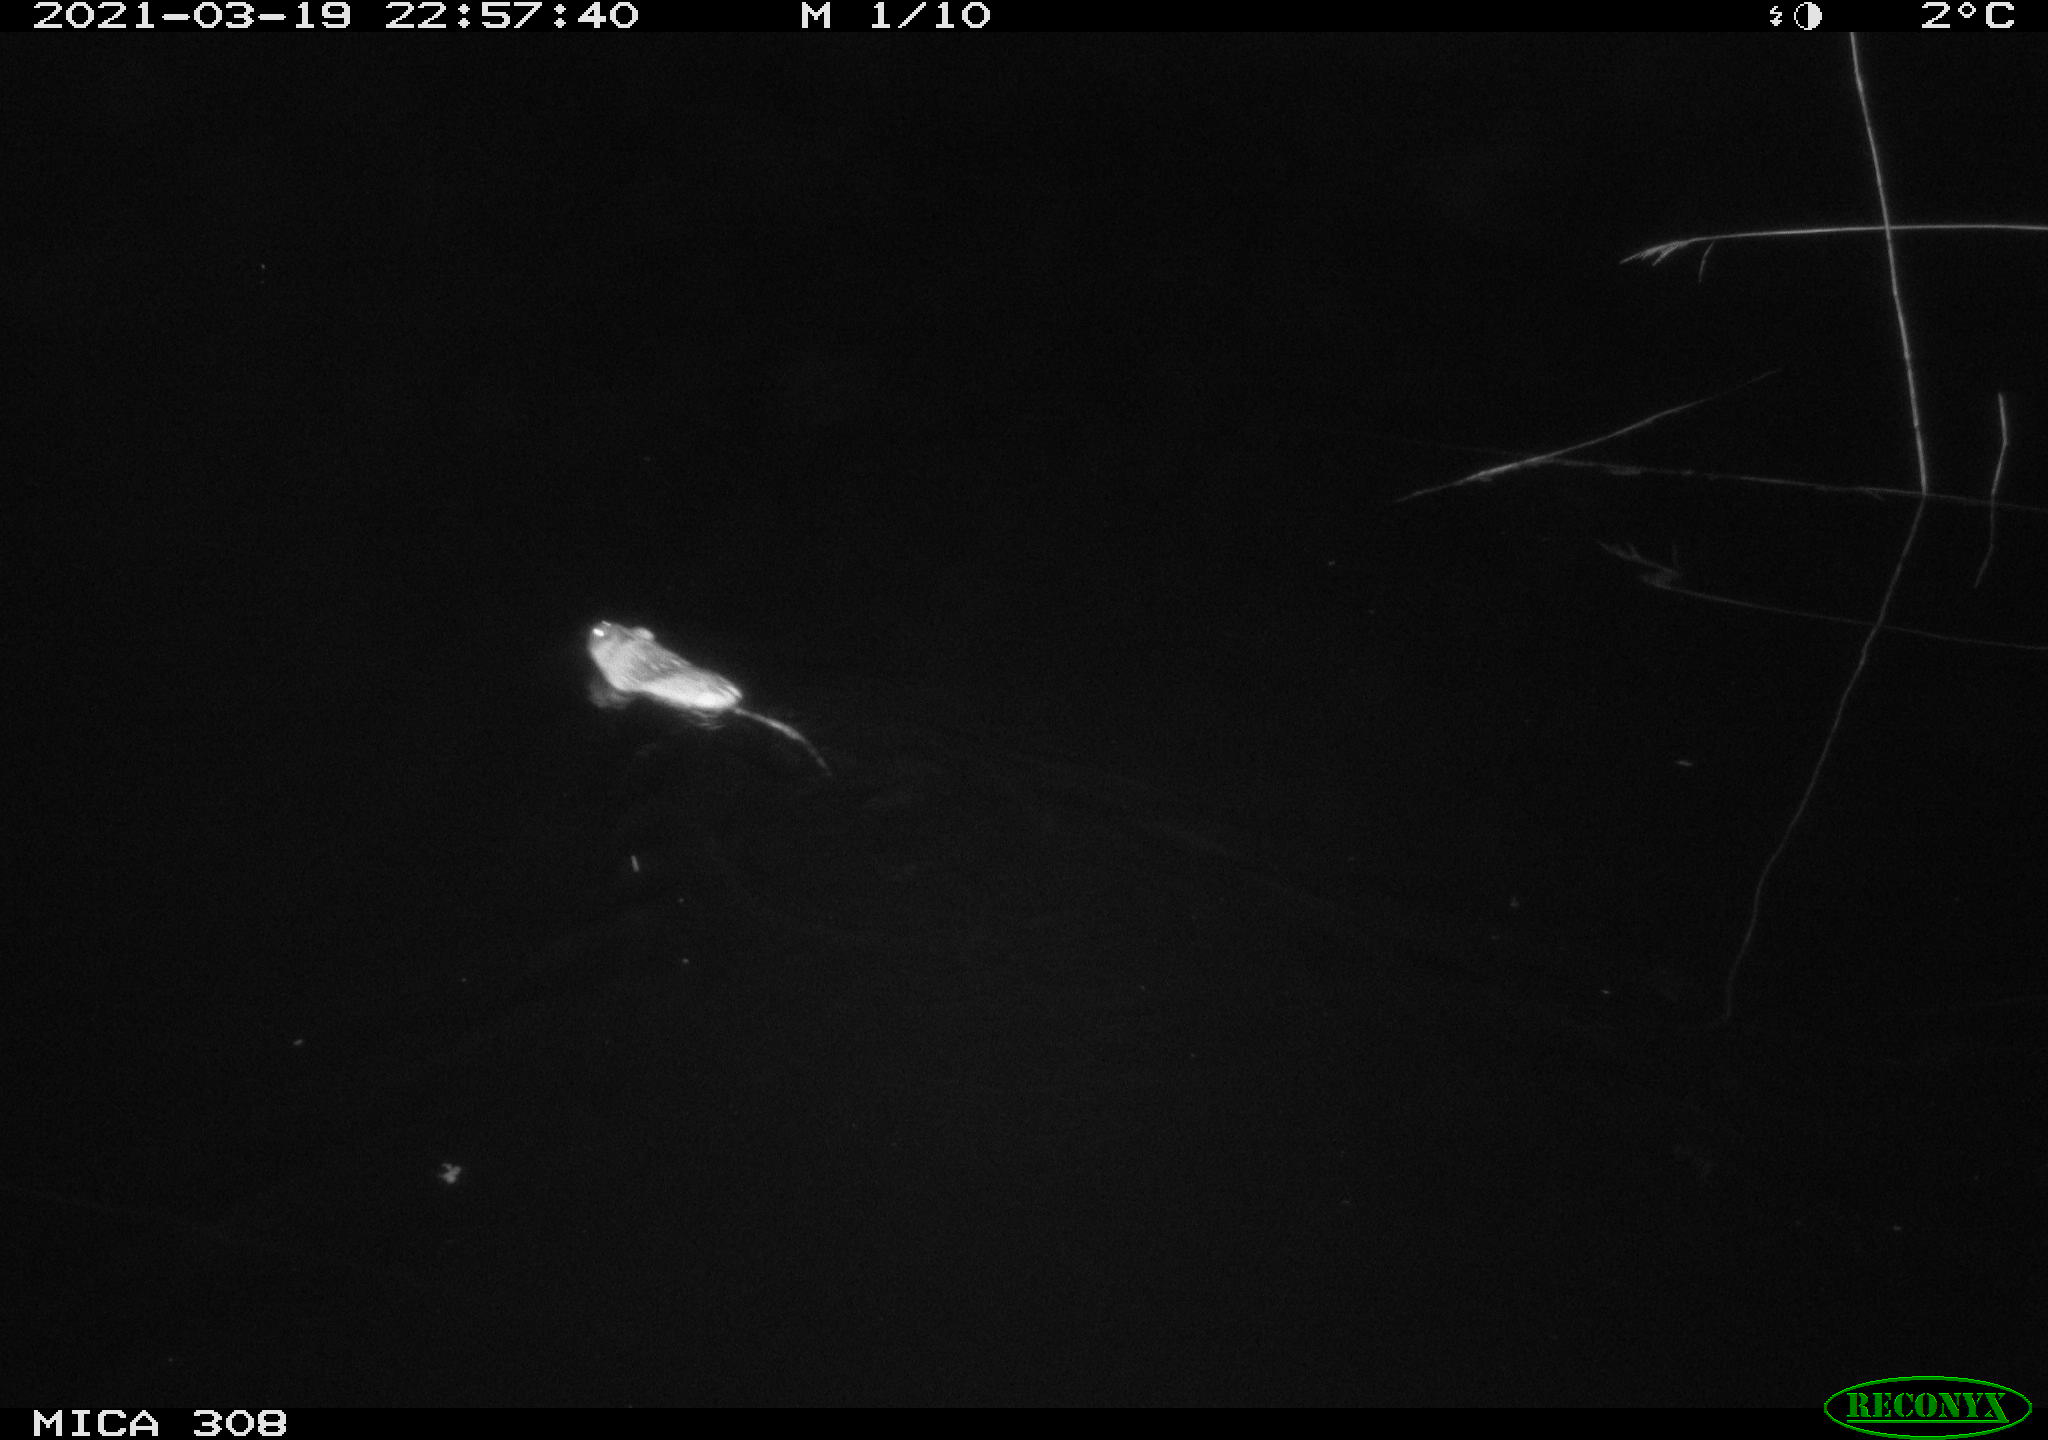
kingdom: Animalia
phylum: Chordata
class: Mammalia
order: Rodentia
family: Cricetidae
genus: Ondatra
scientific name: Ondatra zibethicus
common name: Muskrat
